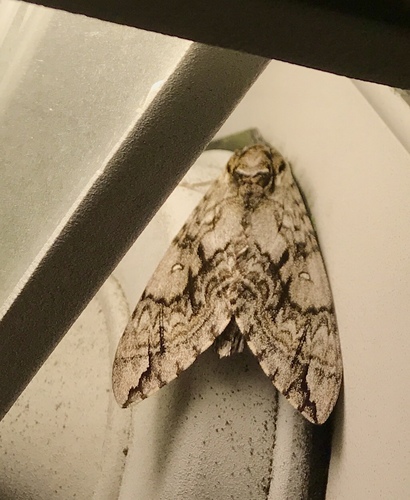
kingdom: Animalia
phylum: Arthropoda
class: Insecta
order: Lepidoptera
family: Sphingidae
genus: Ceratomia
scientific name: Ceratomia undulosa
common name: Waved sphinx
